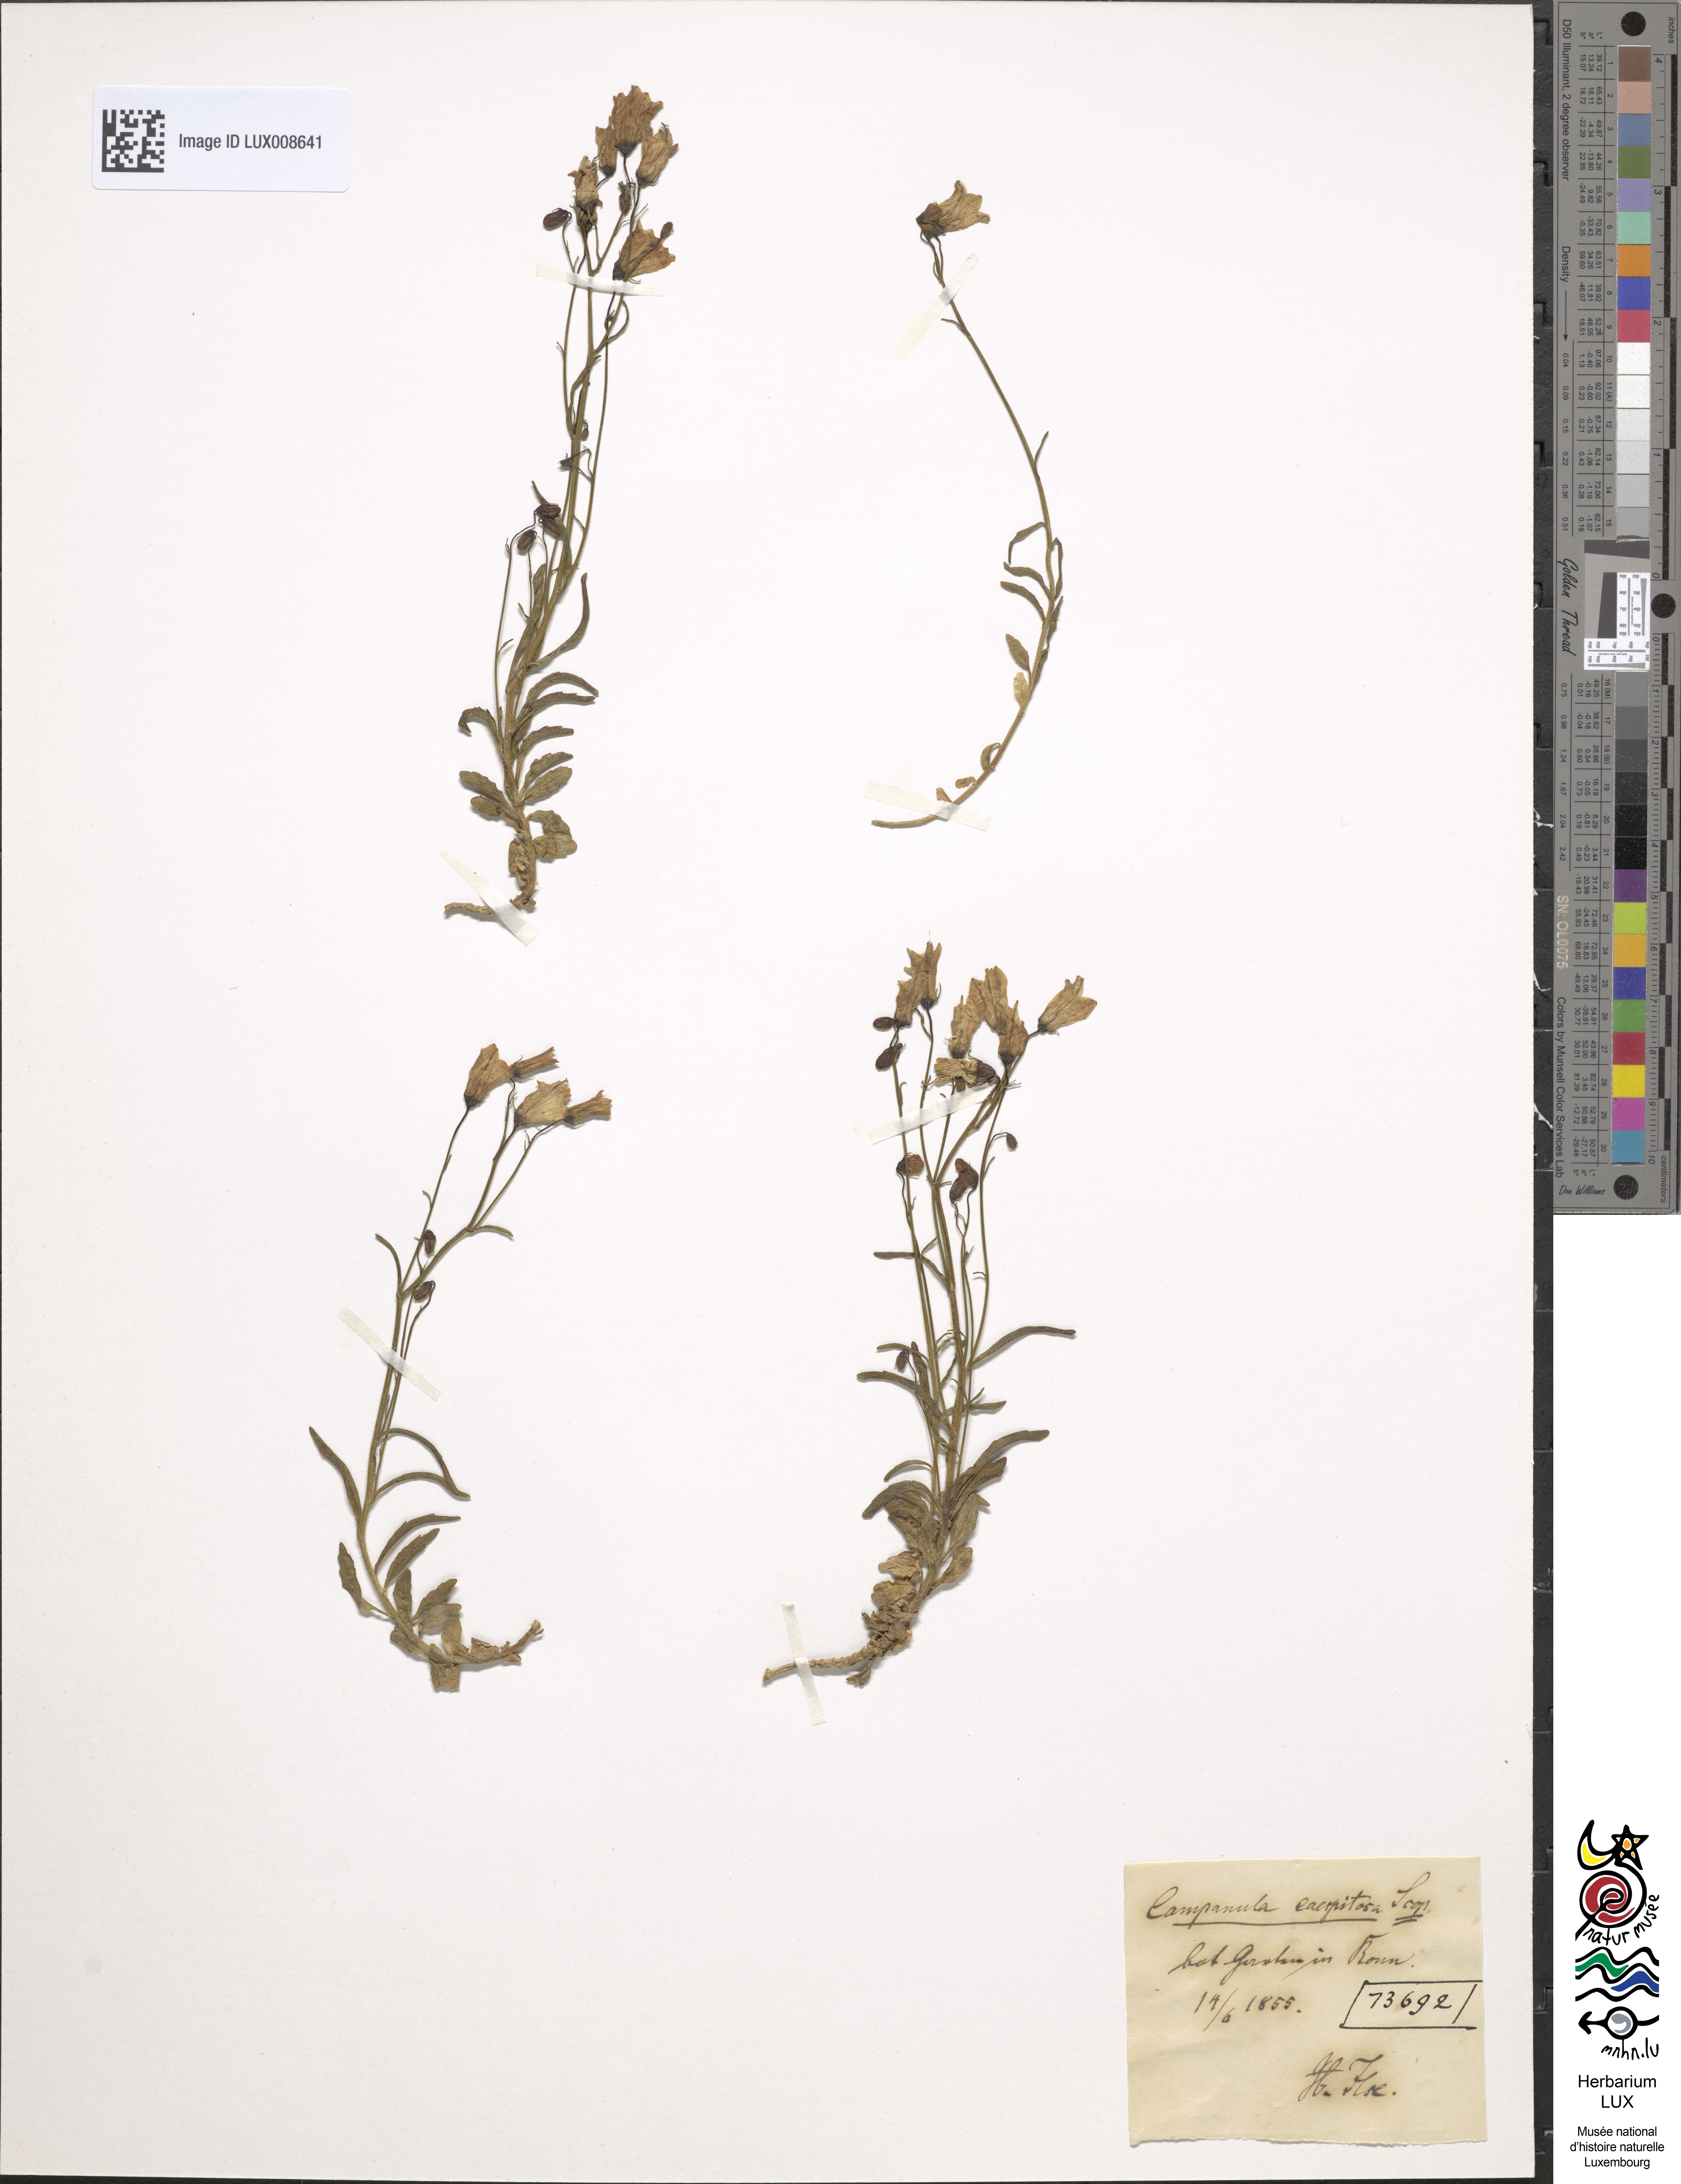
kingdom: Plantae
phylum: Tracheophyta
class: Magnoliopsida
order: Asterales
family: Campanulaceae
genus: Campanula
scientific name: Campanula cespitosa
